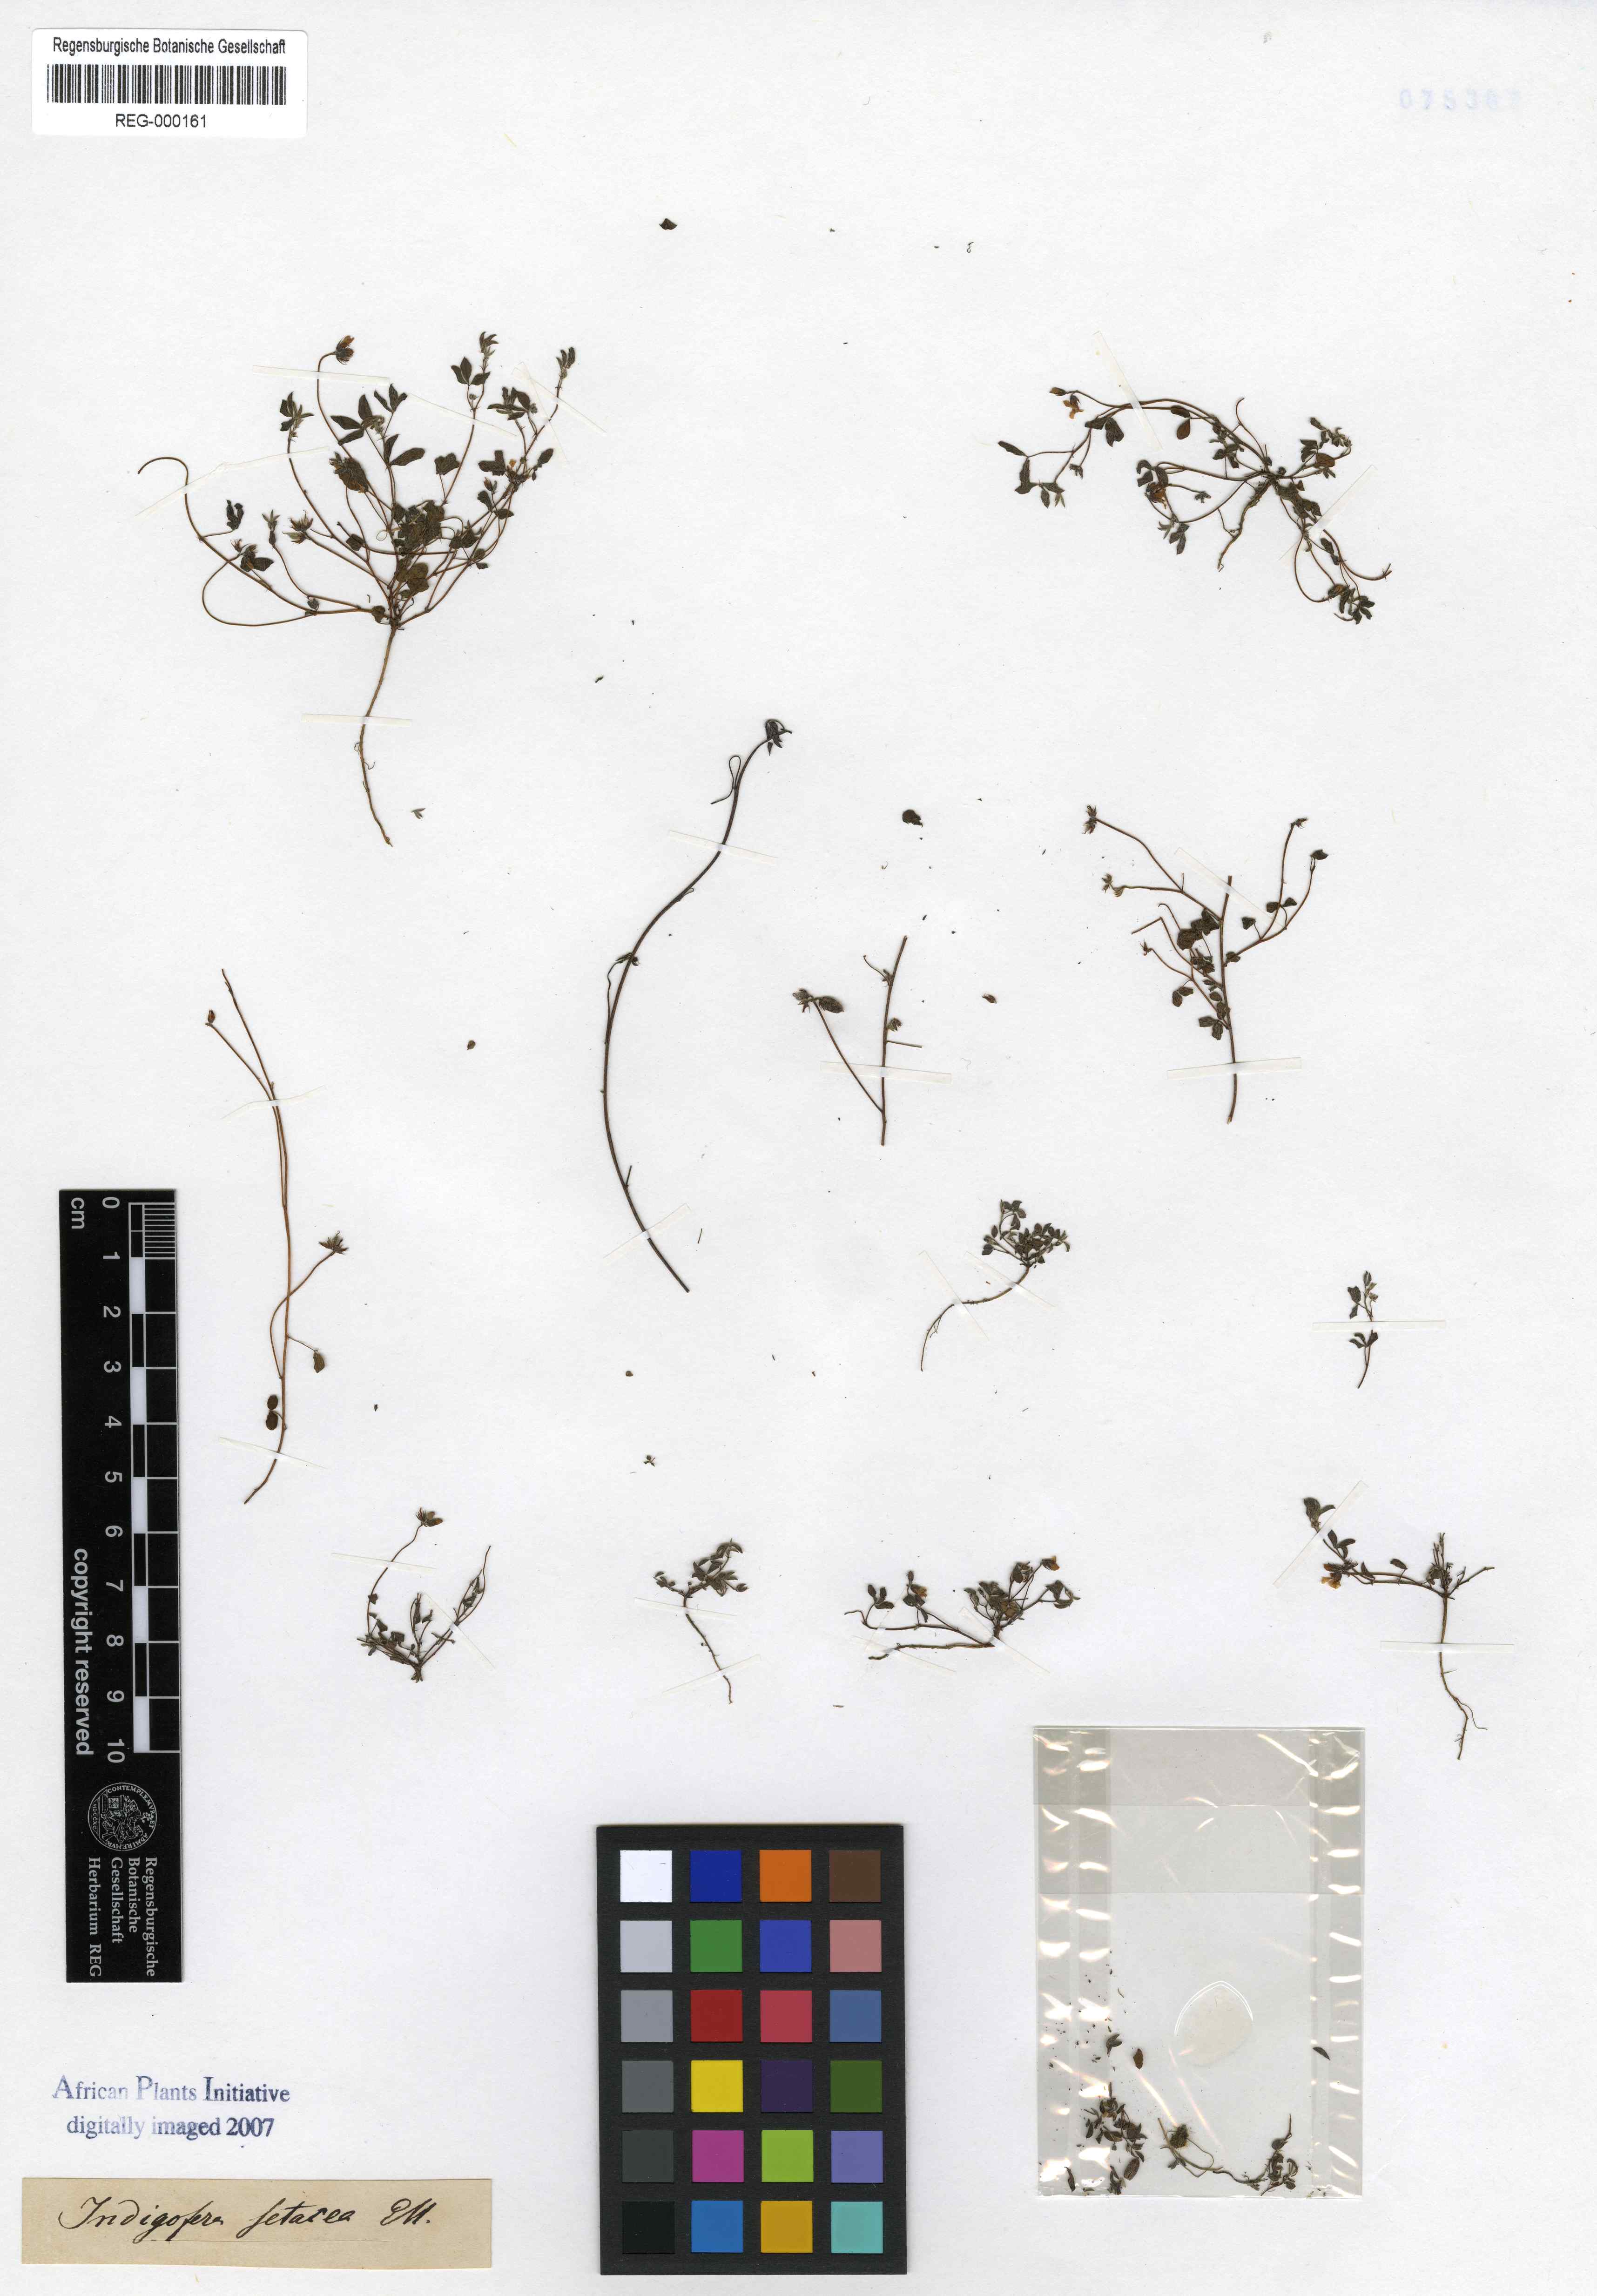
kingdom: Plantae
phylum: Tracheophyta
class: Magnoliopsida
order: Fabales
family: Fabaceae
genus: Indigofera
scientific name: Indigofera gracilis
